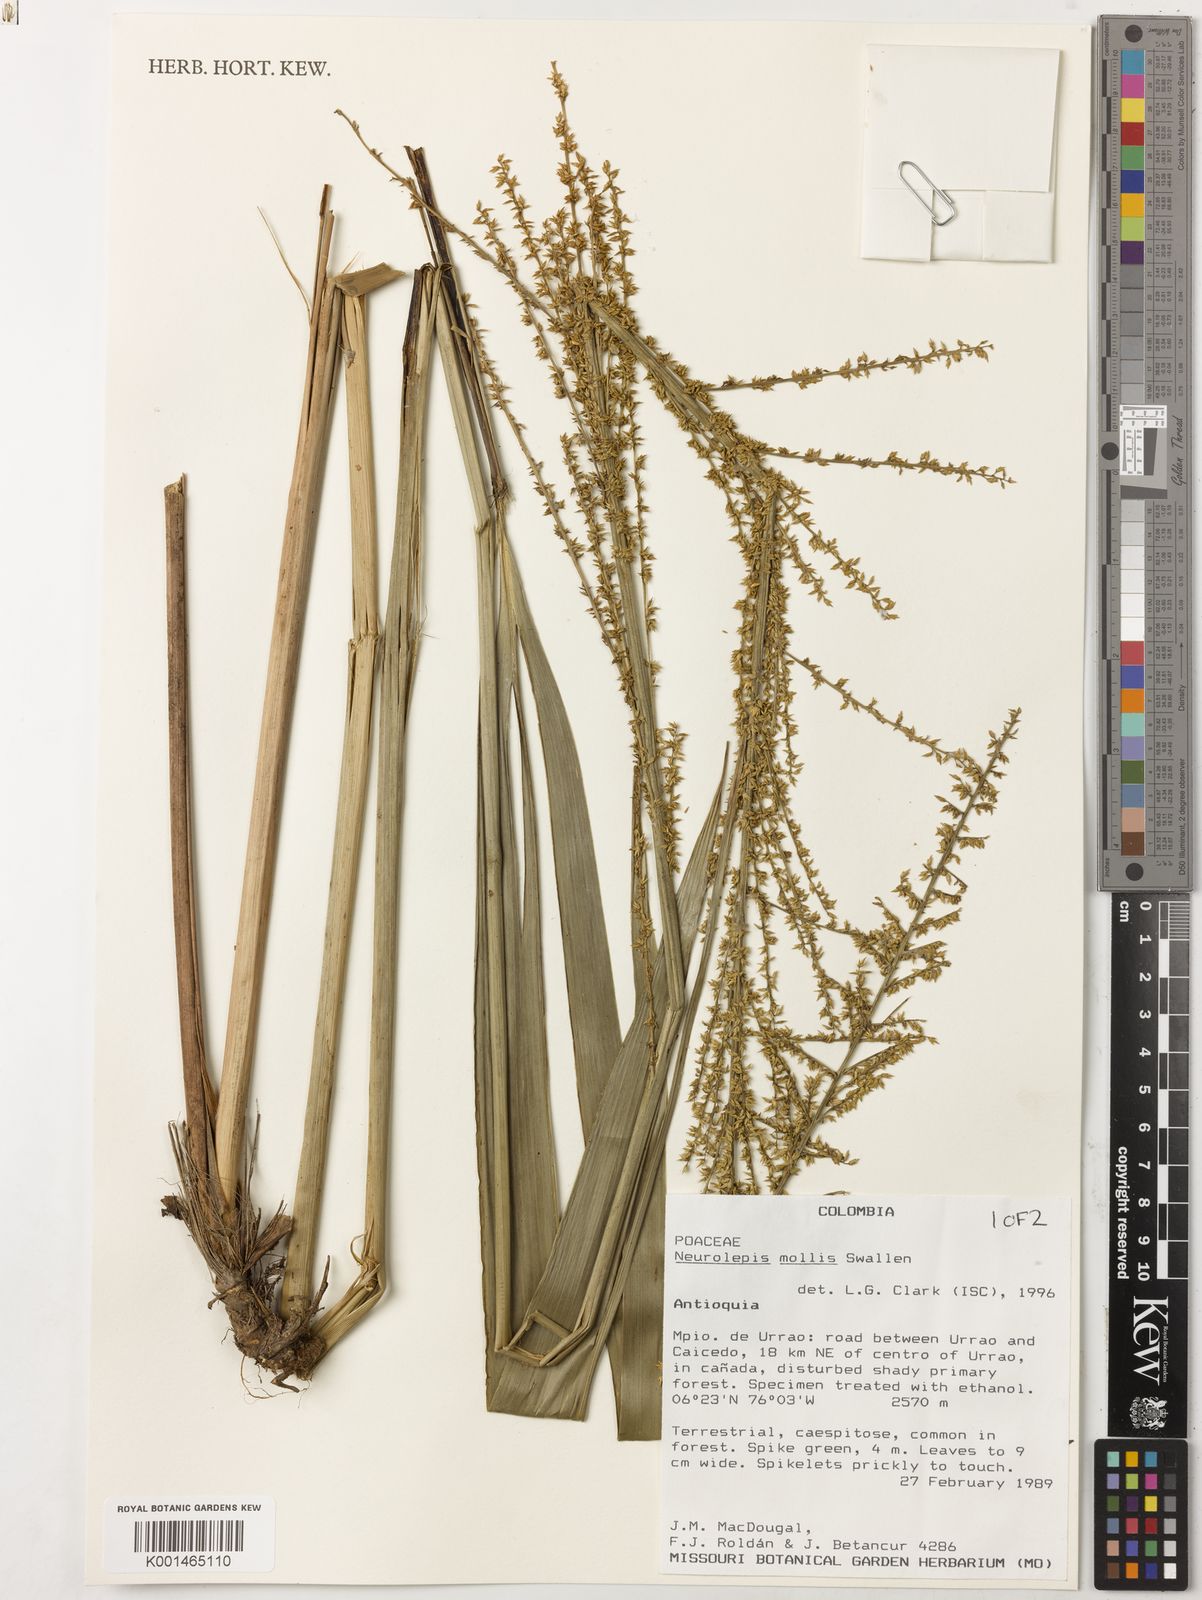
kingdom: Plantae
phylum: Tracheophyta
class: Liliopsida
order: Poales
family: Poaceae
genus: Chusquea
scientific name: Chusquea mollis
